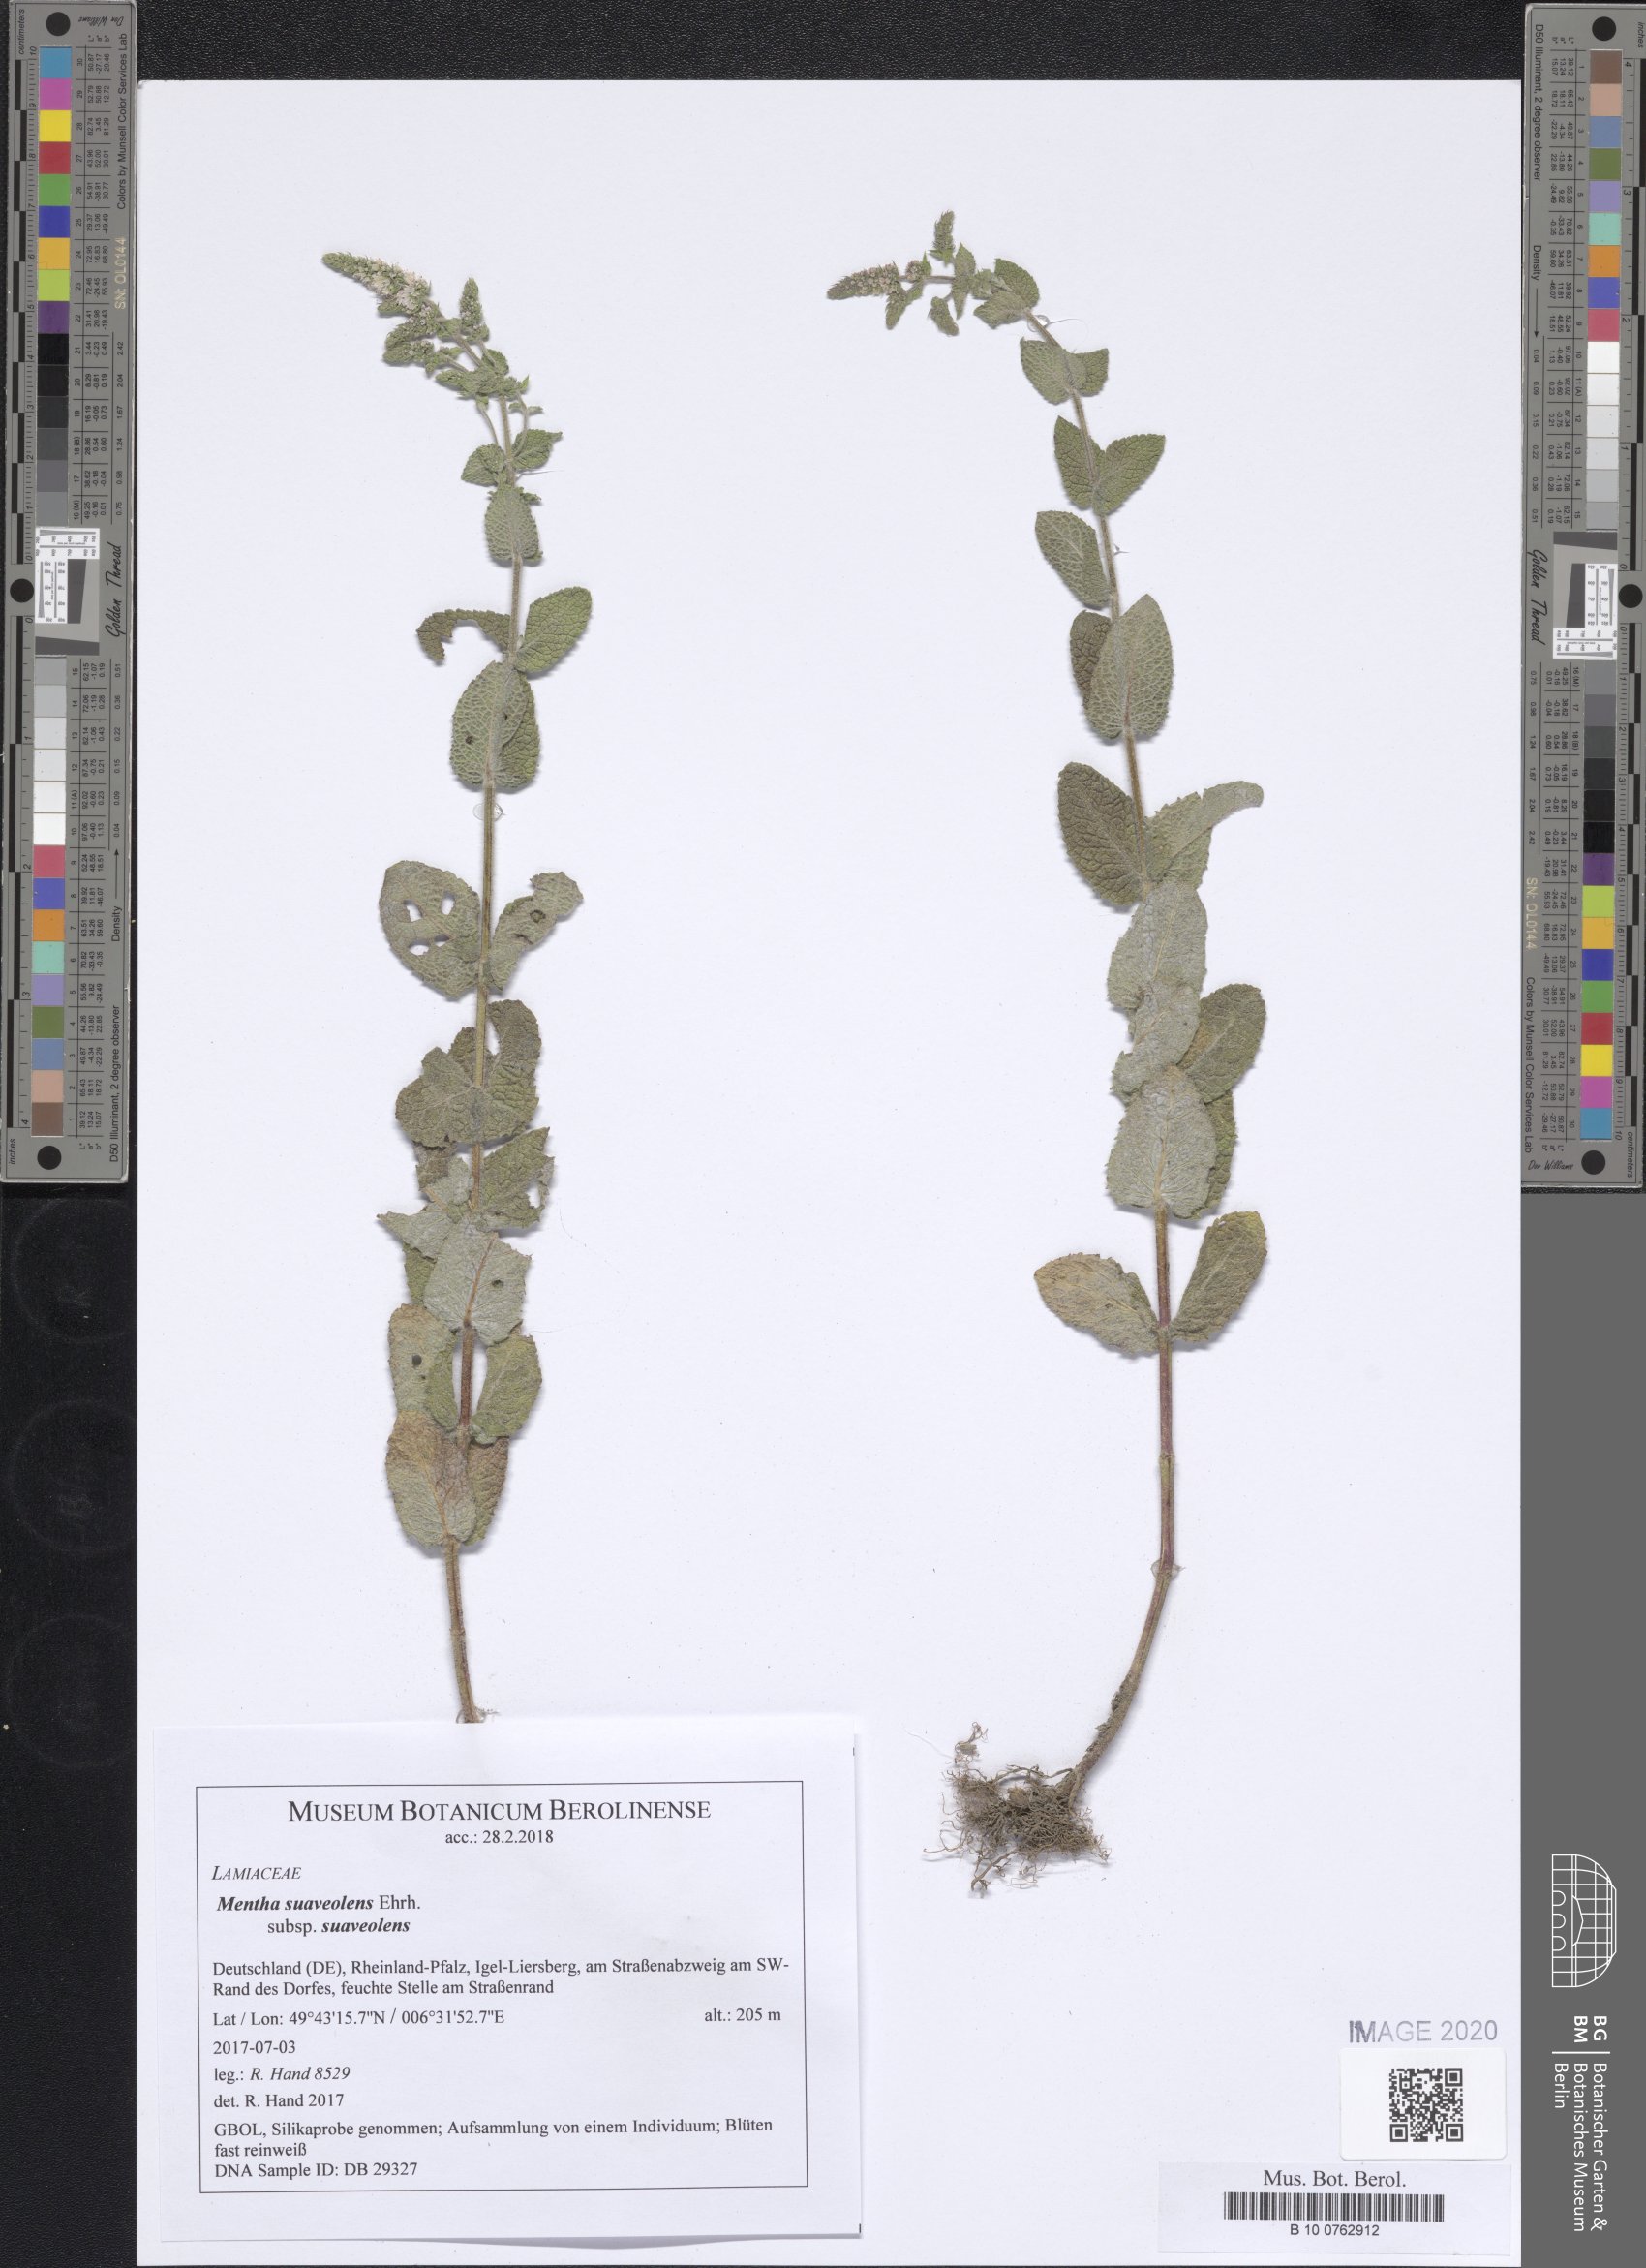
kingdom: Plantae
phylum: Tracheophyta
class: Magnoliopsida
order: Lamiales
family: Lamiaceae
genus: Mentha
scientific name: Mentha suaveolens
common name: Apple mint
